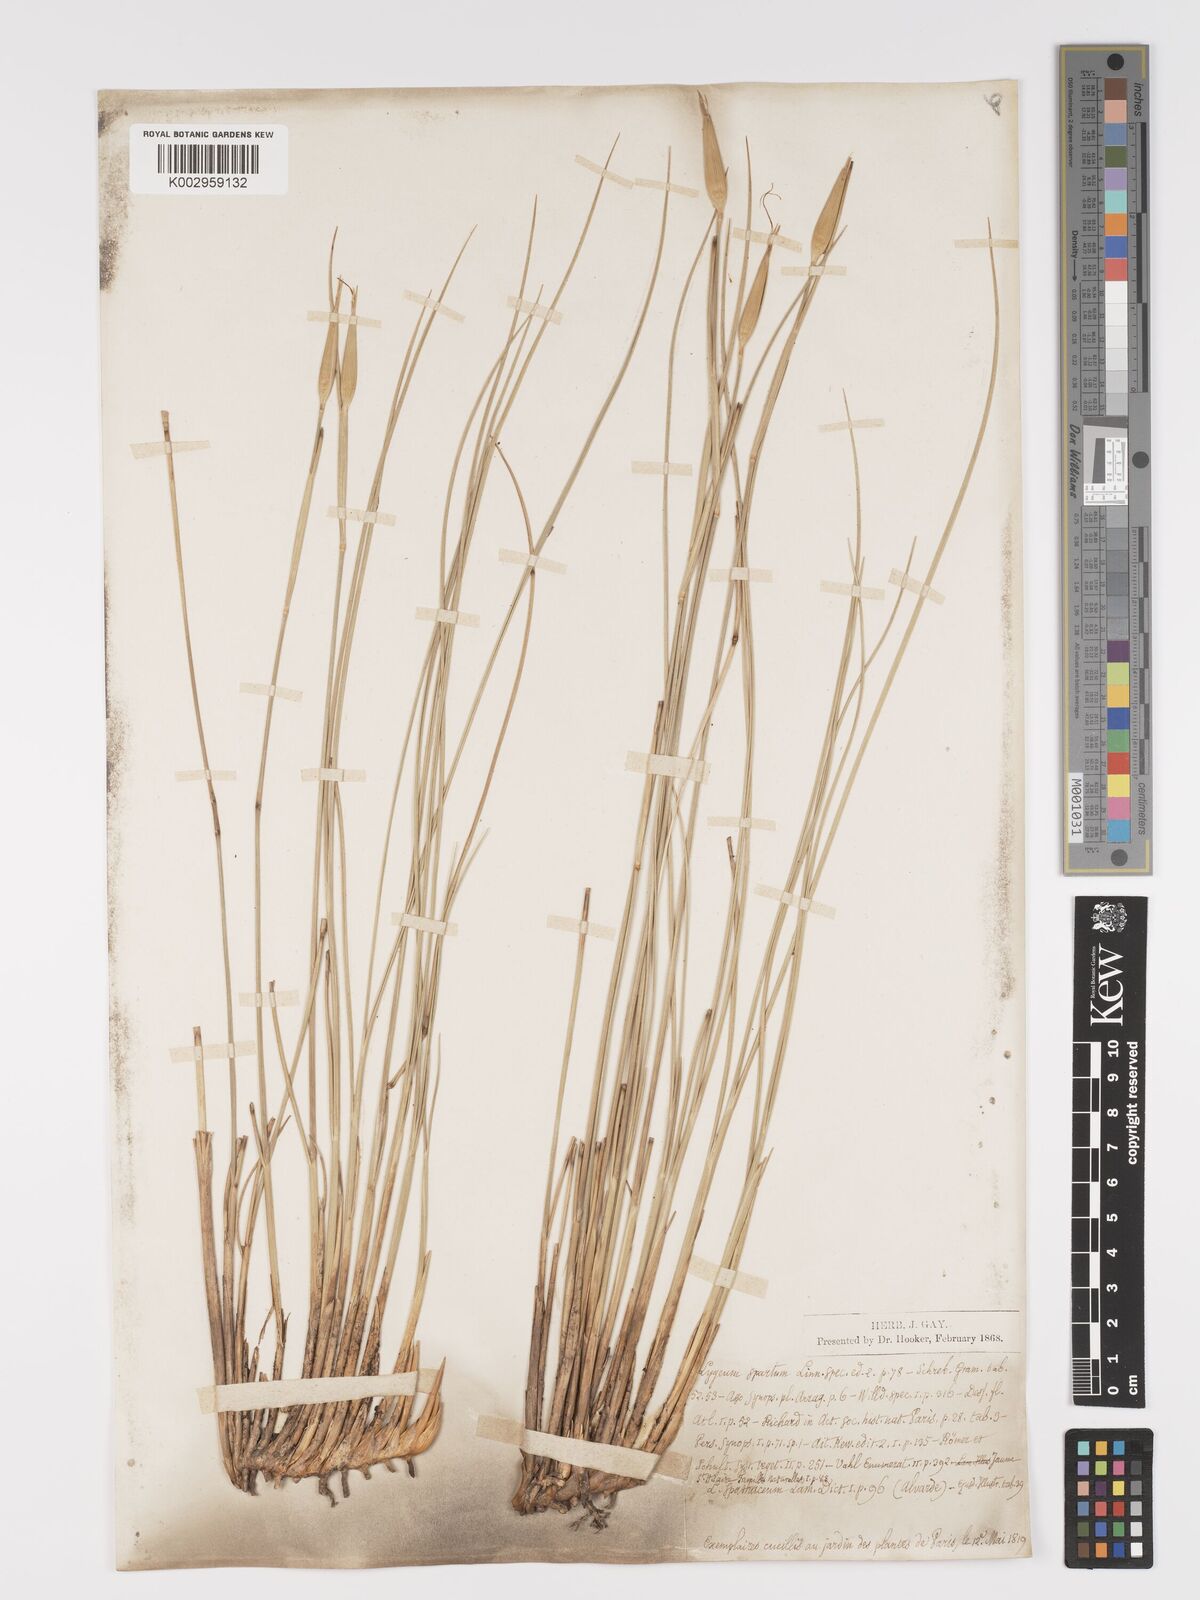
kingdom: Plantae
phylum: Tracheophyta
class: Liliopsida
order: Poales
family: Poaceae
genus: Lygeum
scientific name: Lygeum spartum
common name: Albardine
